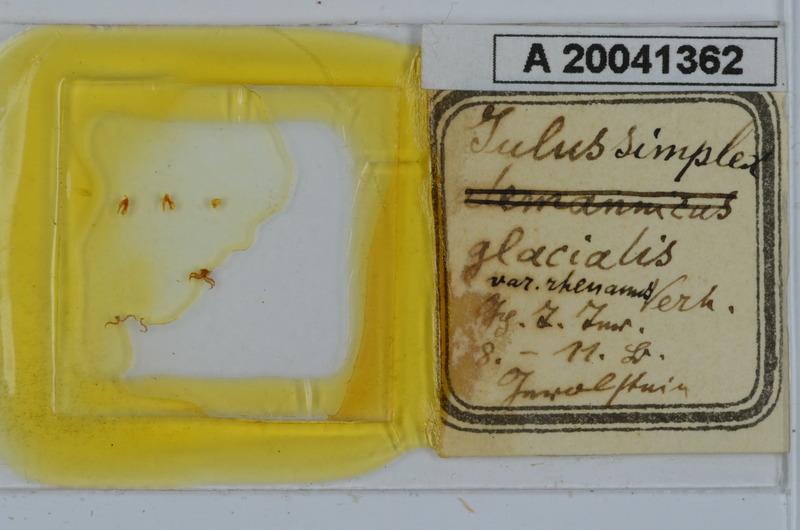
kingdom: Animalia
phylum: Arthropoda
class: Diplopoda
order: Julida
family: Julidae
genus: Leptoiulus
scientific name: Leptoiulus simplex
